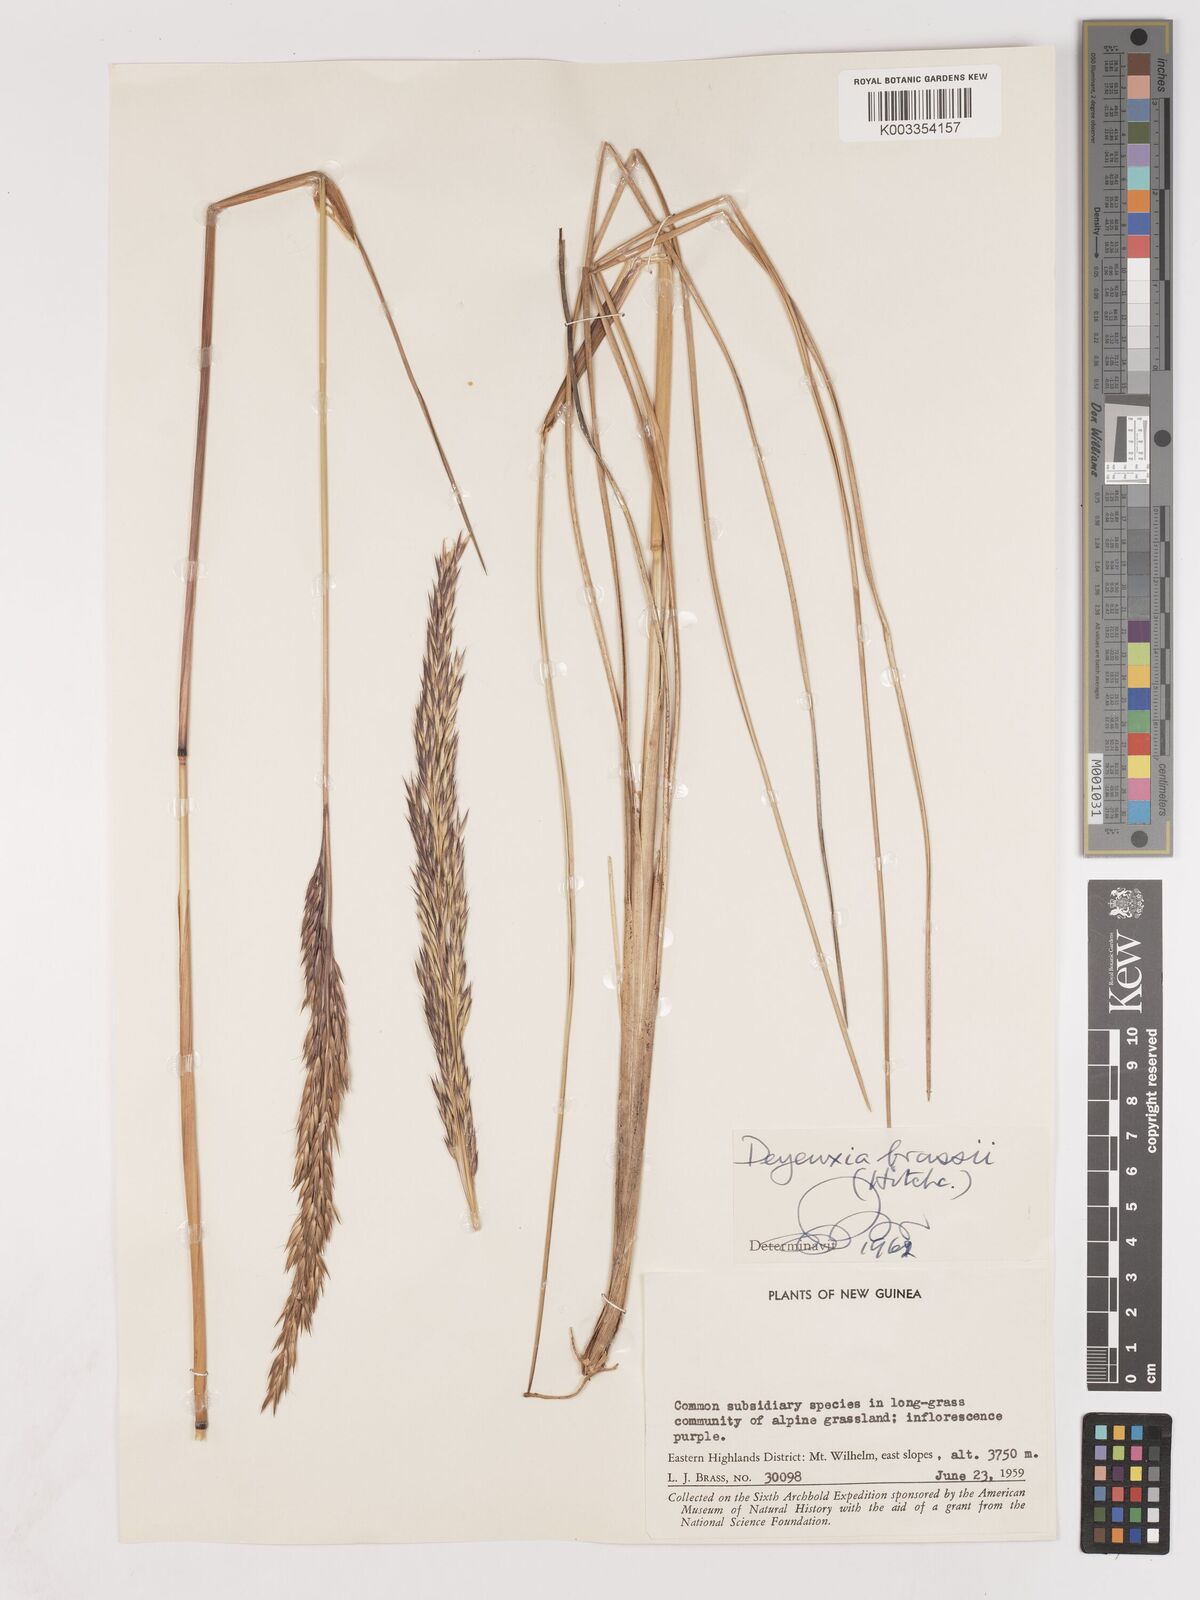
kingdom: Plantae
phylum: Tracheophyta
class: Liliopsida
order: Poales
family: Poaceae
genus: Calamagrostis
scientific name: Calamagrostis brassii
